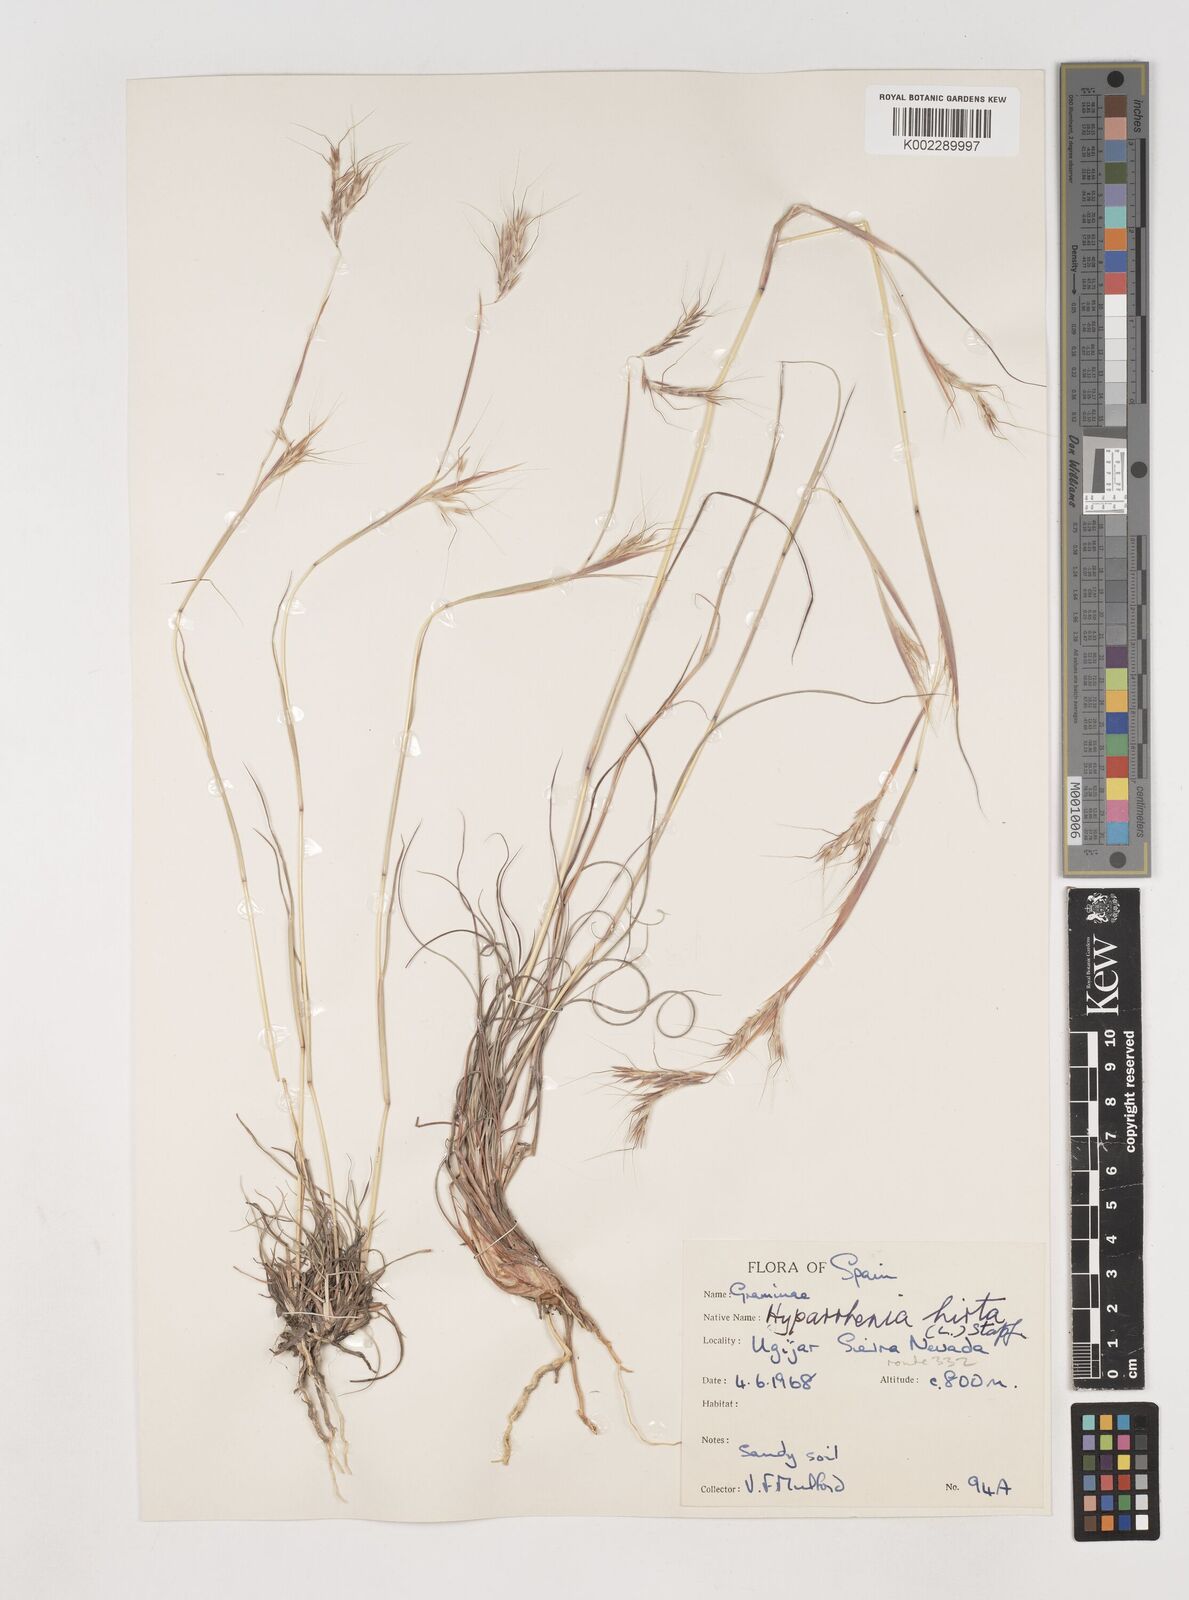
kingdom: Plantae
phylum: Tracheophyta
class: Liliopsida
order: Poales
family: Poaceae
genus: Hyparrhenia
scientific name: Hyparrhenia hirta
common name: Thatching grass
